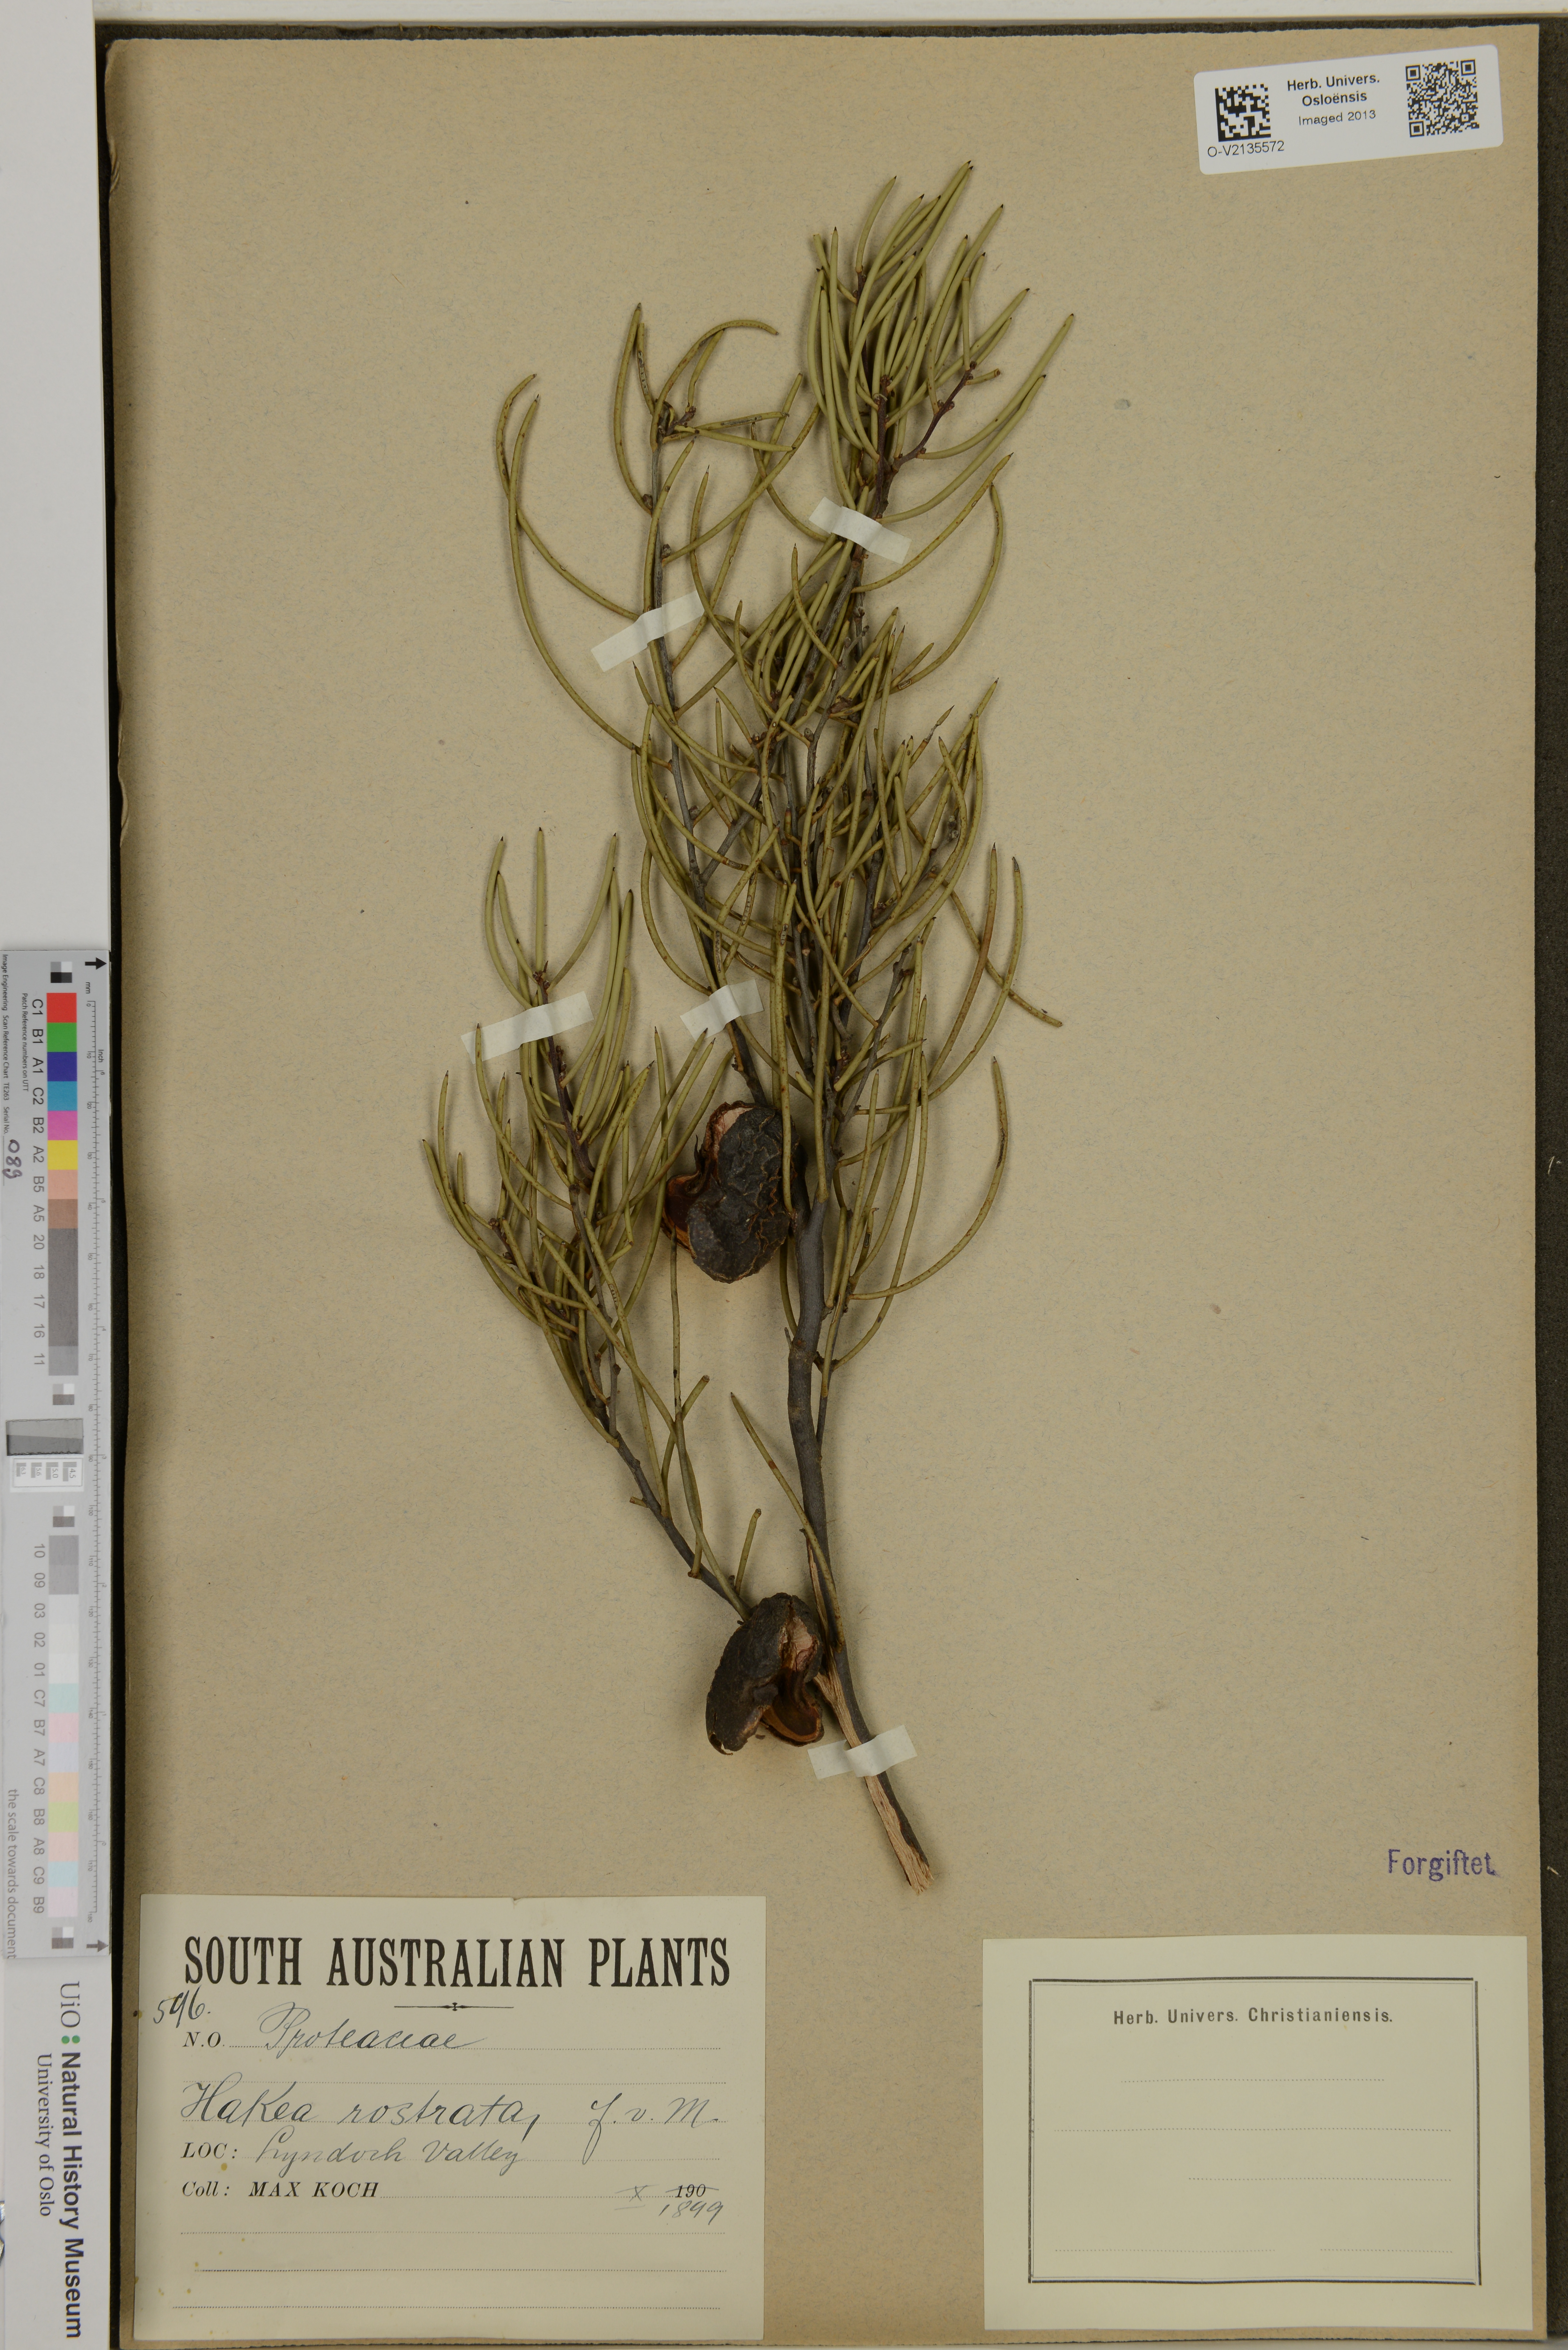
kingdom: Plantae
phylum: Tracheophyta
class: Magnoliopsida
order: Proteales
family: Proteaceae
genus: Hakea
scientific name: Hakea rostrata
